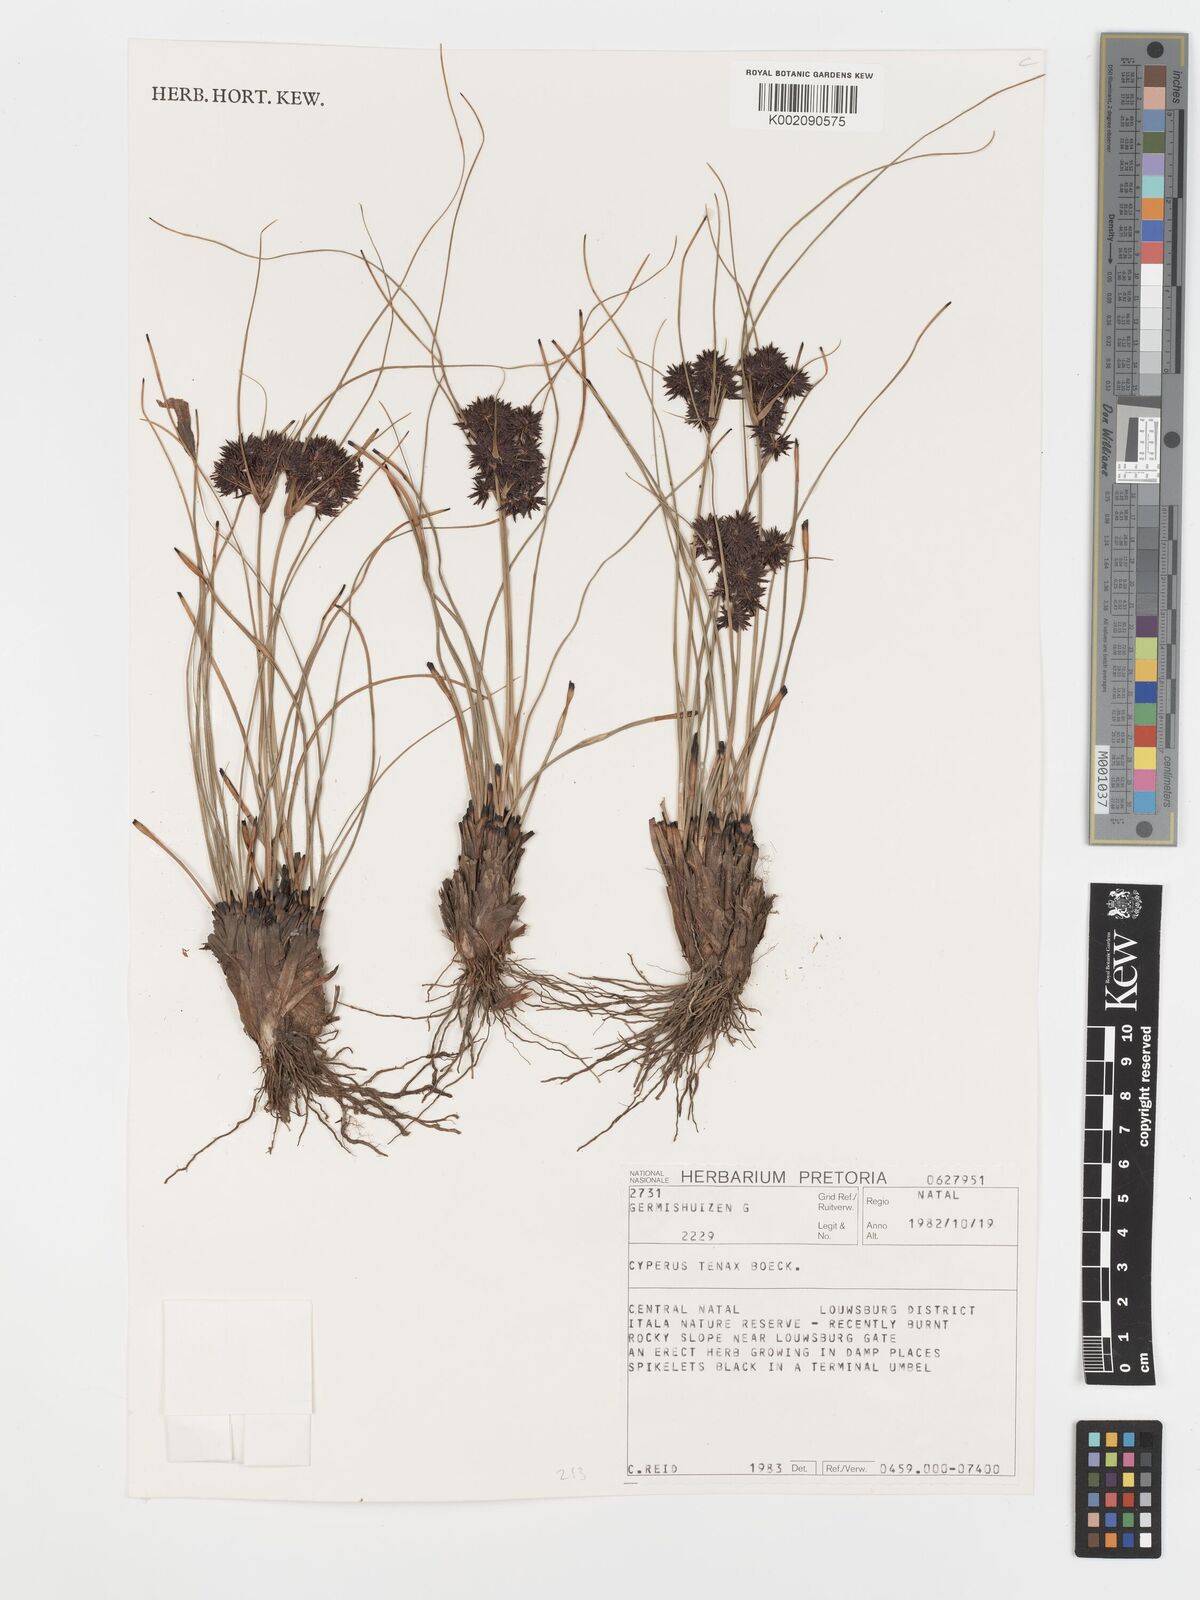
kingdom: Plantae
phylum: Tracheophyta
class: Liliopsida
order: Poales
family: Cyperaceae
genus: Cyperus
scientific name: Cyperus tenax
